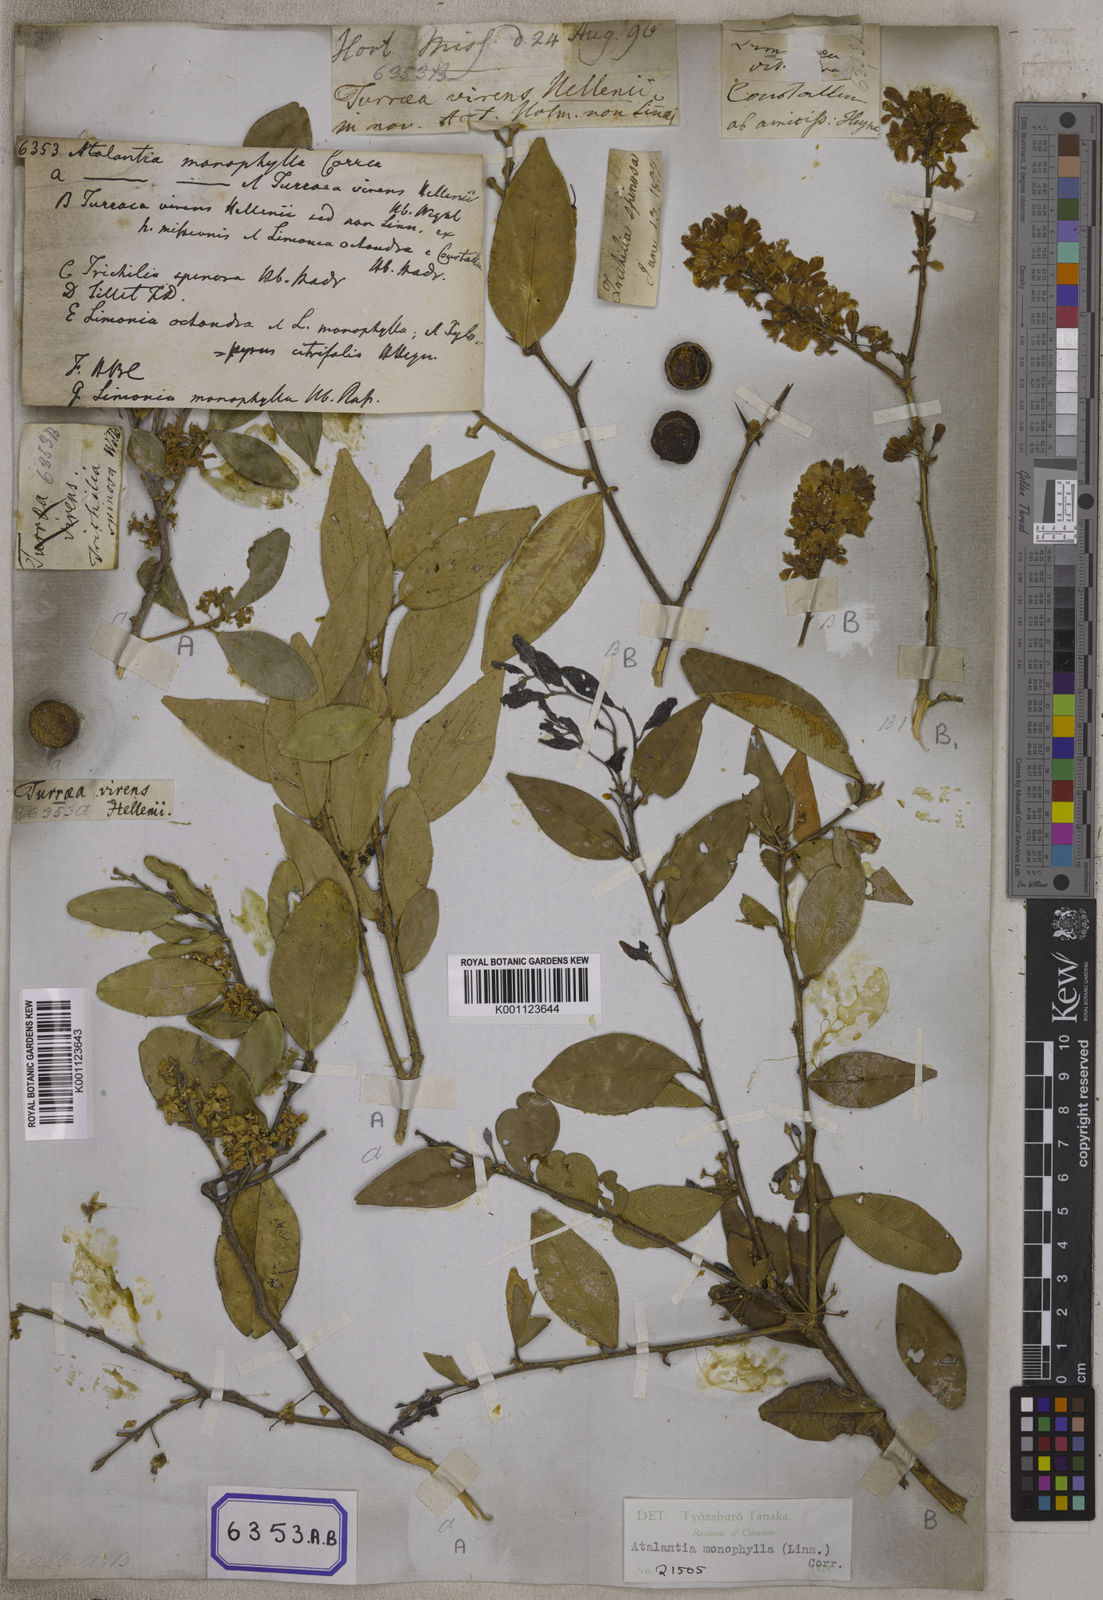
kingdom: Plantae
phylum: Tracheophyta
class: Magnoliopsida
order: Sapindales
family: Rutaceae
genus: Atalantia
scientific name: Atalantia monophylla
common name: Indian-atalantia
